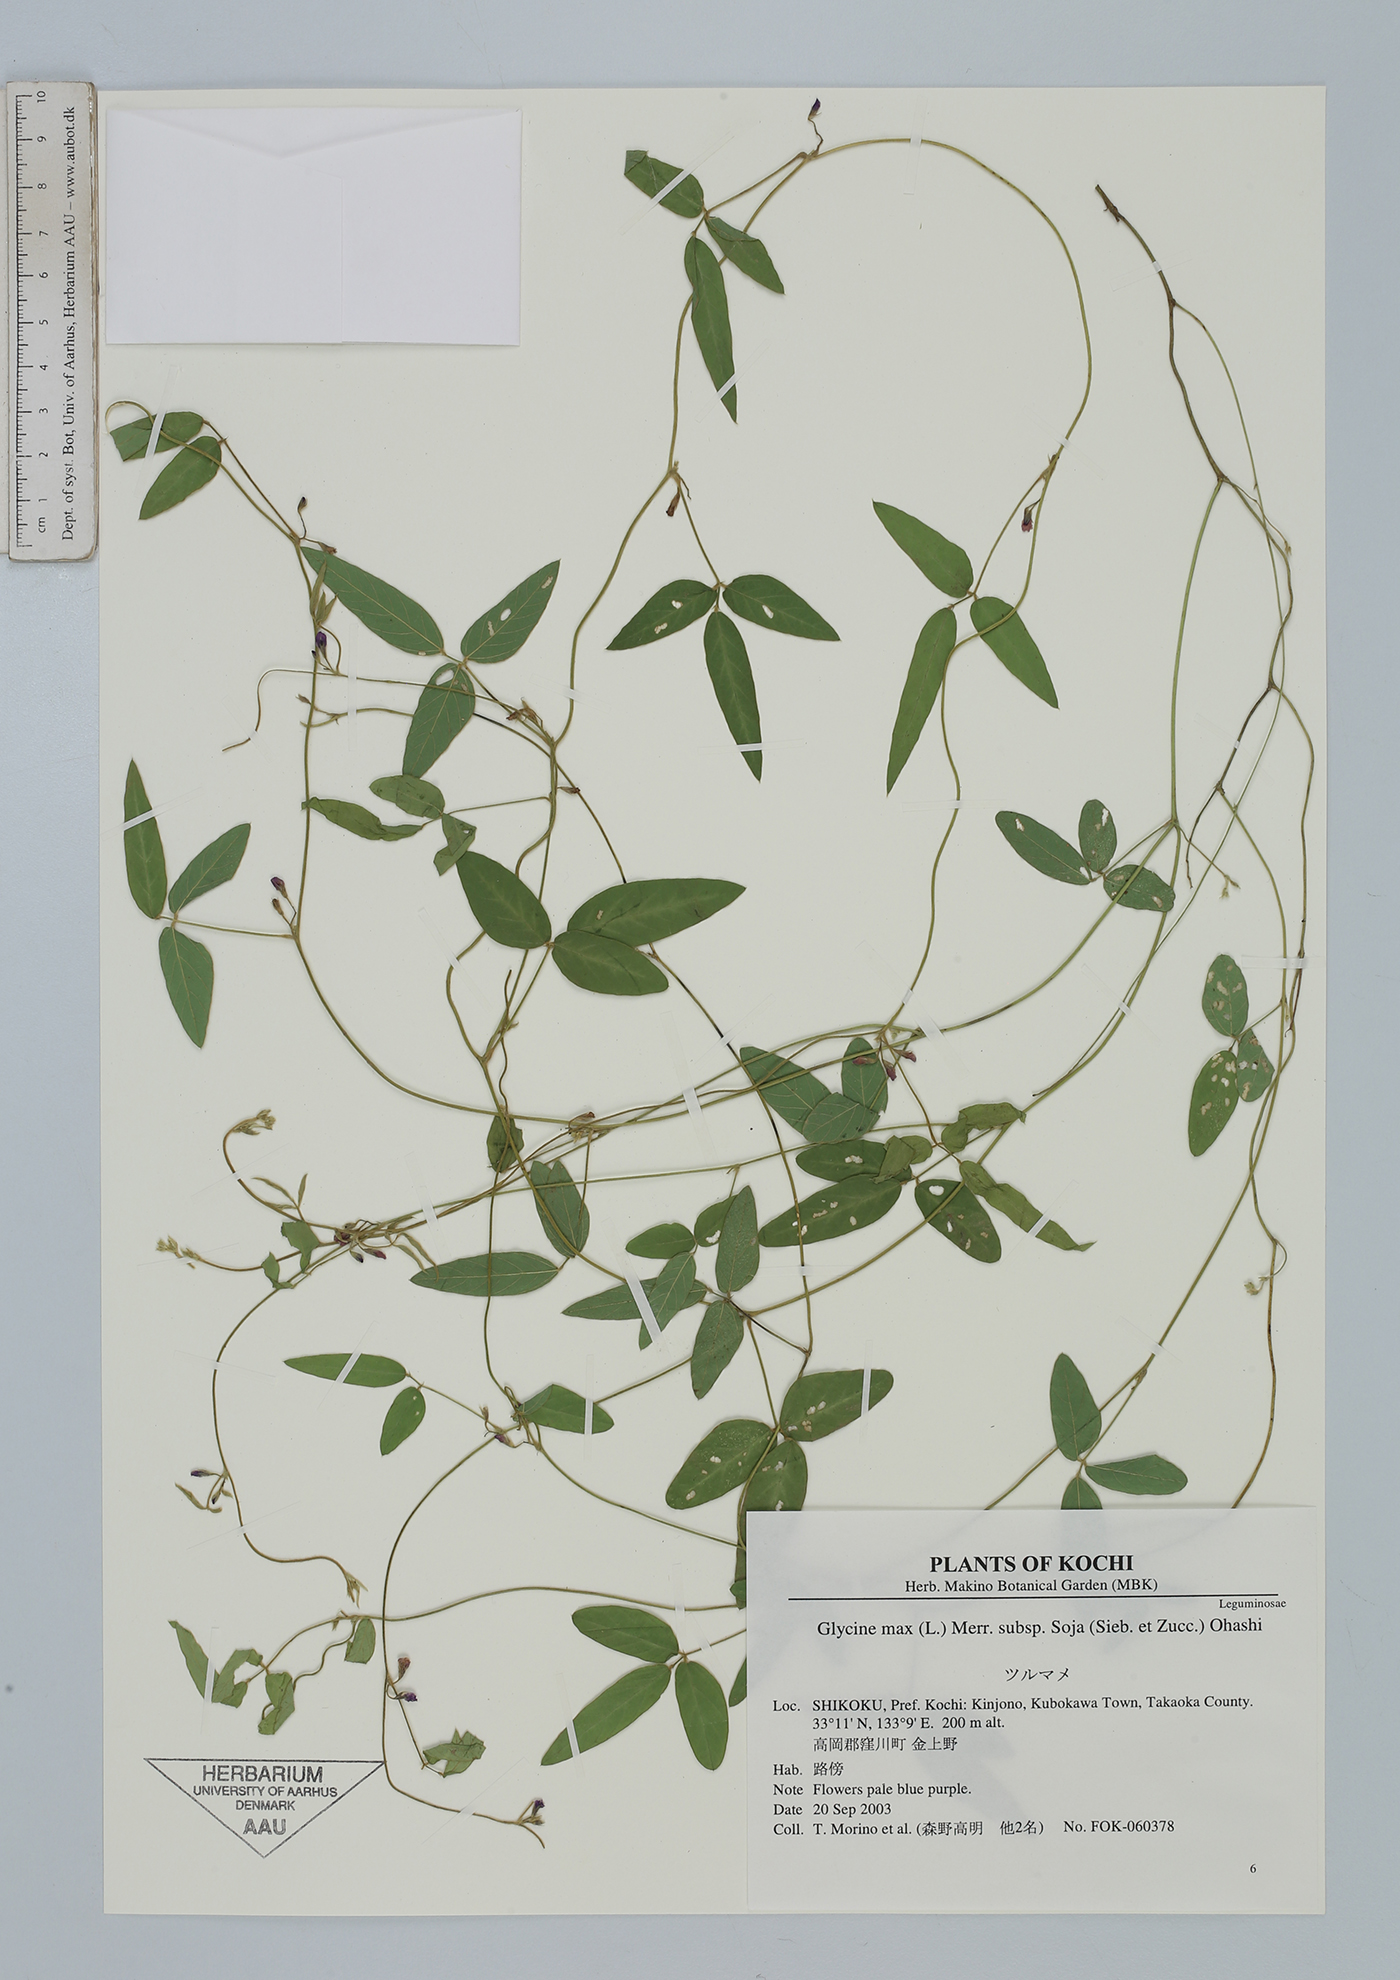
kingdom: Plantae
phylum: Tracheophyta
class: Magnoliopsida
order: Fabales
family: Fabaceae
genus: Glycine
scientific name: Glycine max
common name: Soya-bean
